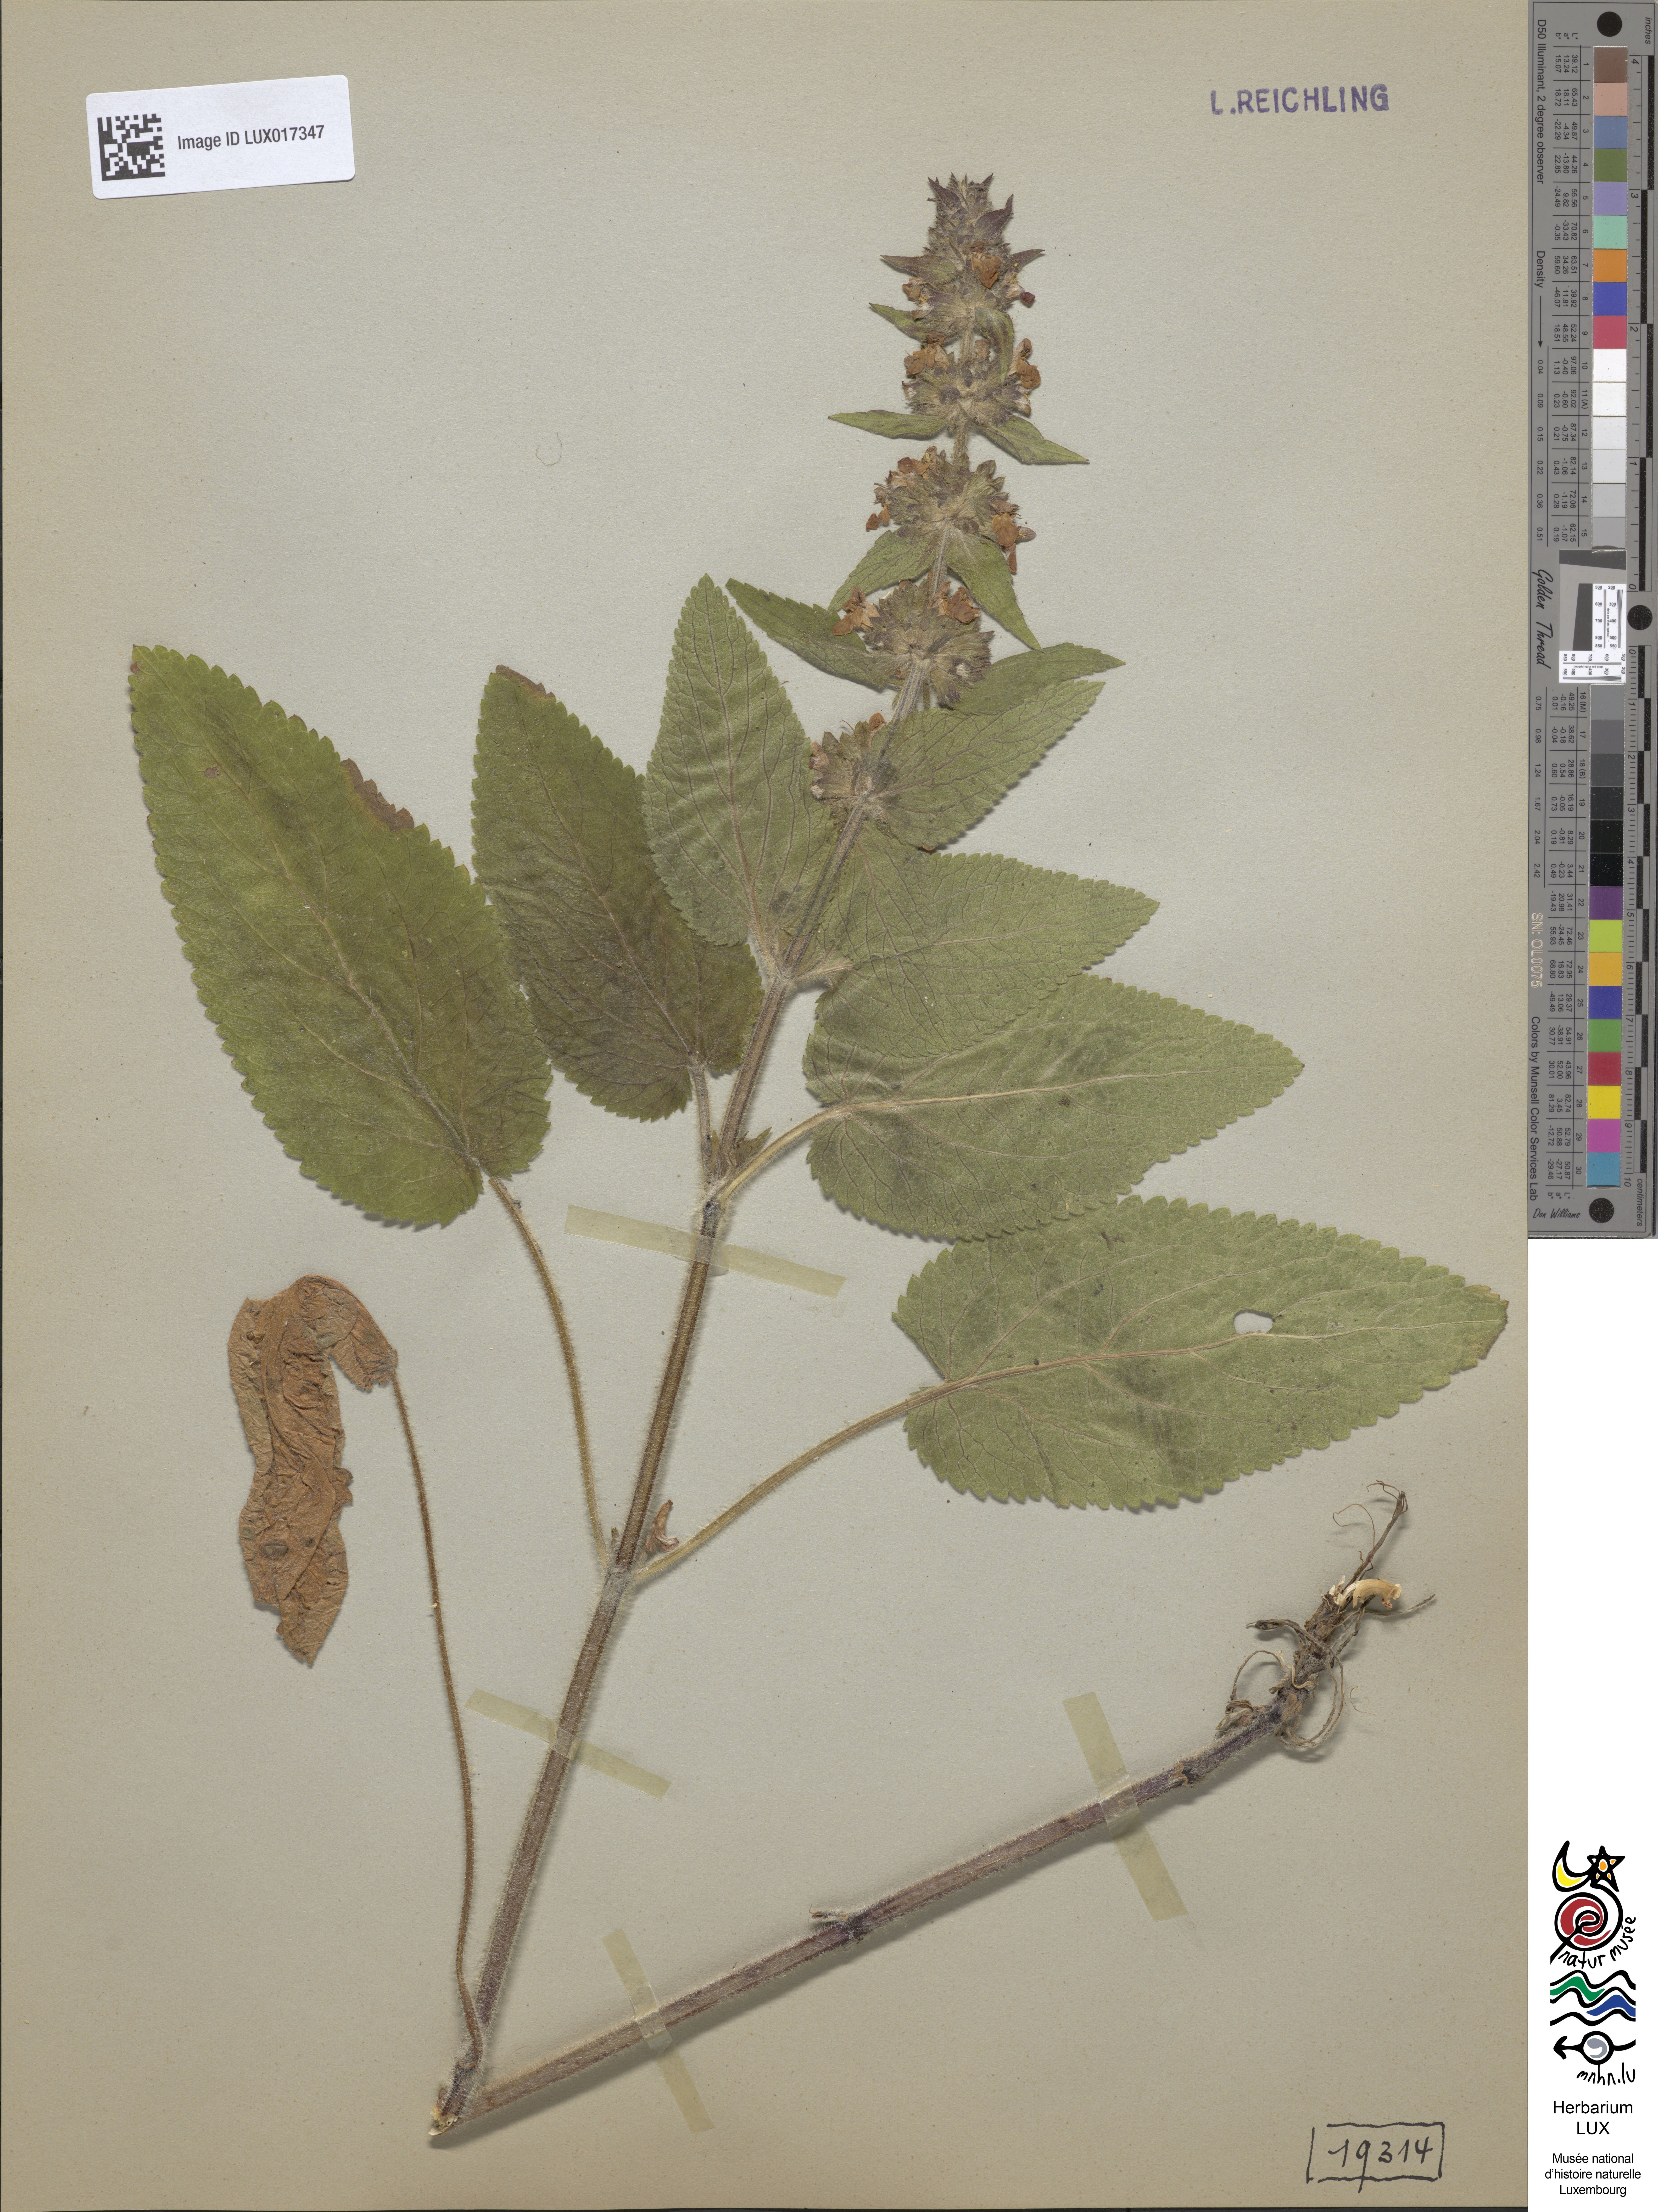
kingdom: Plantae
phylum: Tracheophyta
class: Magnoliopsida
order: Lamiales
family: Lamiaceae
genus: Stachys
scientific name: Stachys alpina
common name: Limestone woundwort
